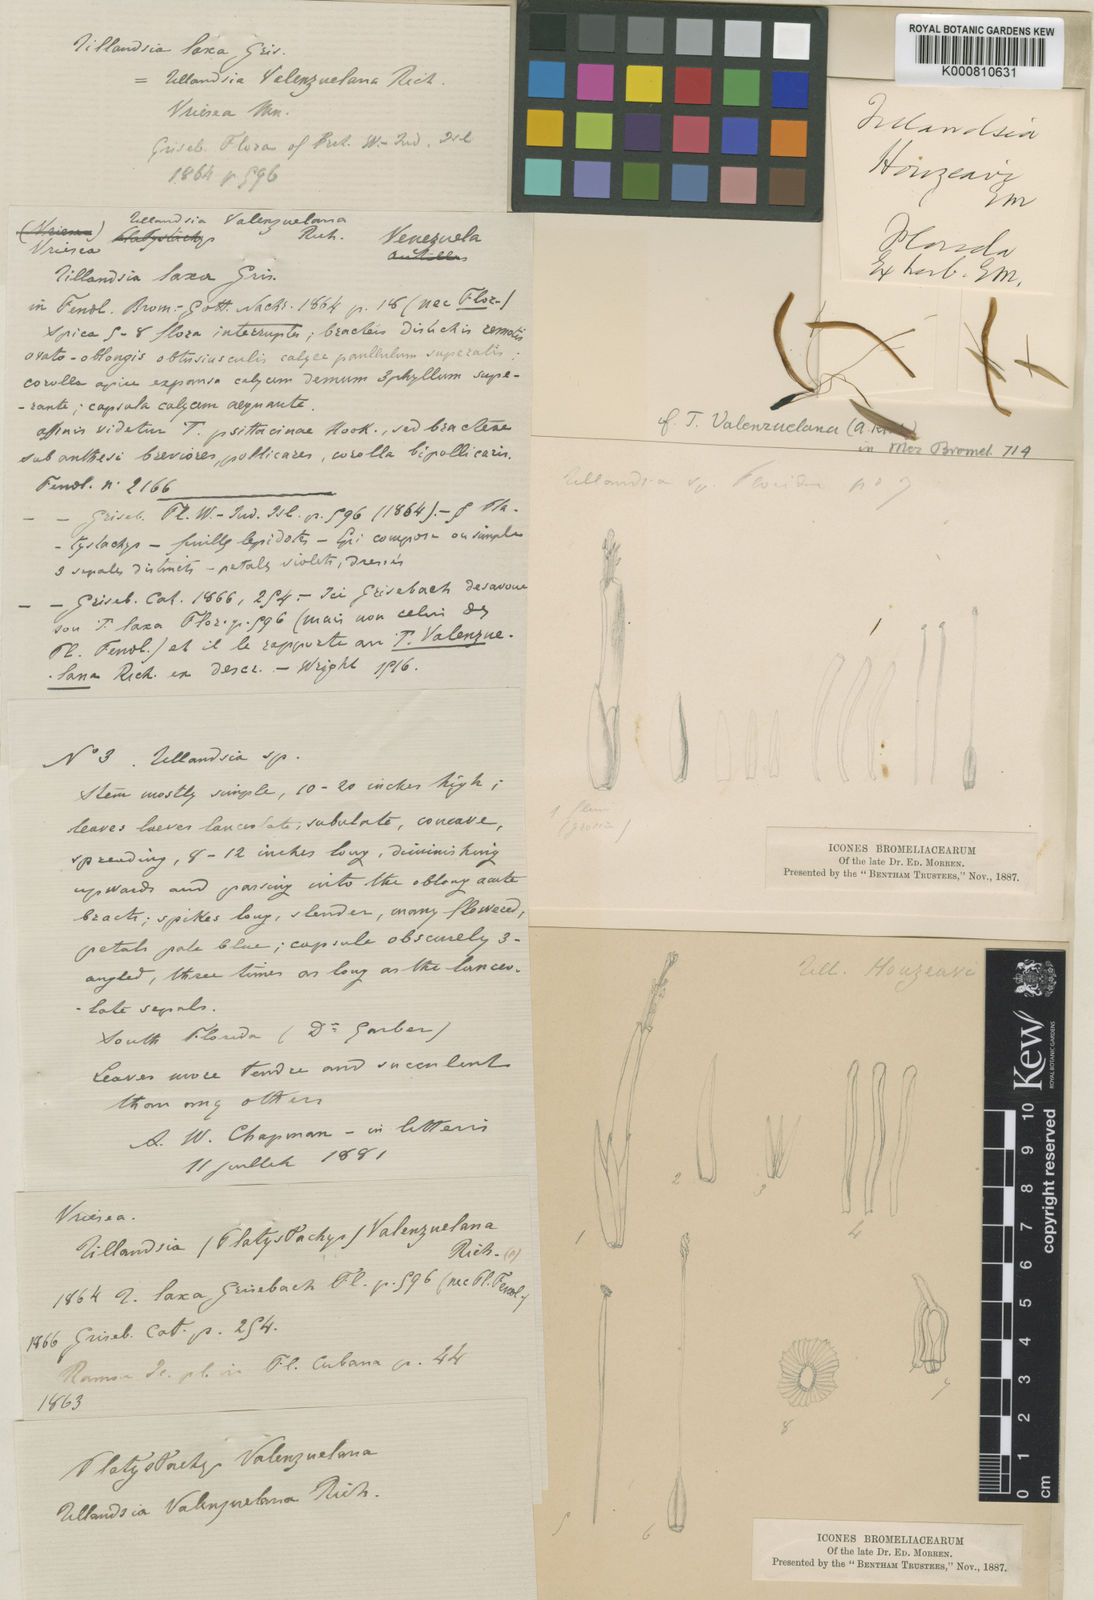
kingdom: Plantae
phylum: Tracheophyta
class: Liliopsida
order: Poales
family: Bromeliaceae
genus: Tillandsia
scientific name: Tillandsia variabilis
